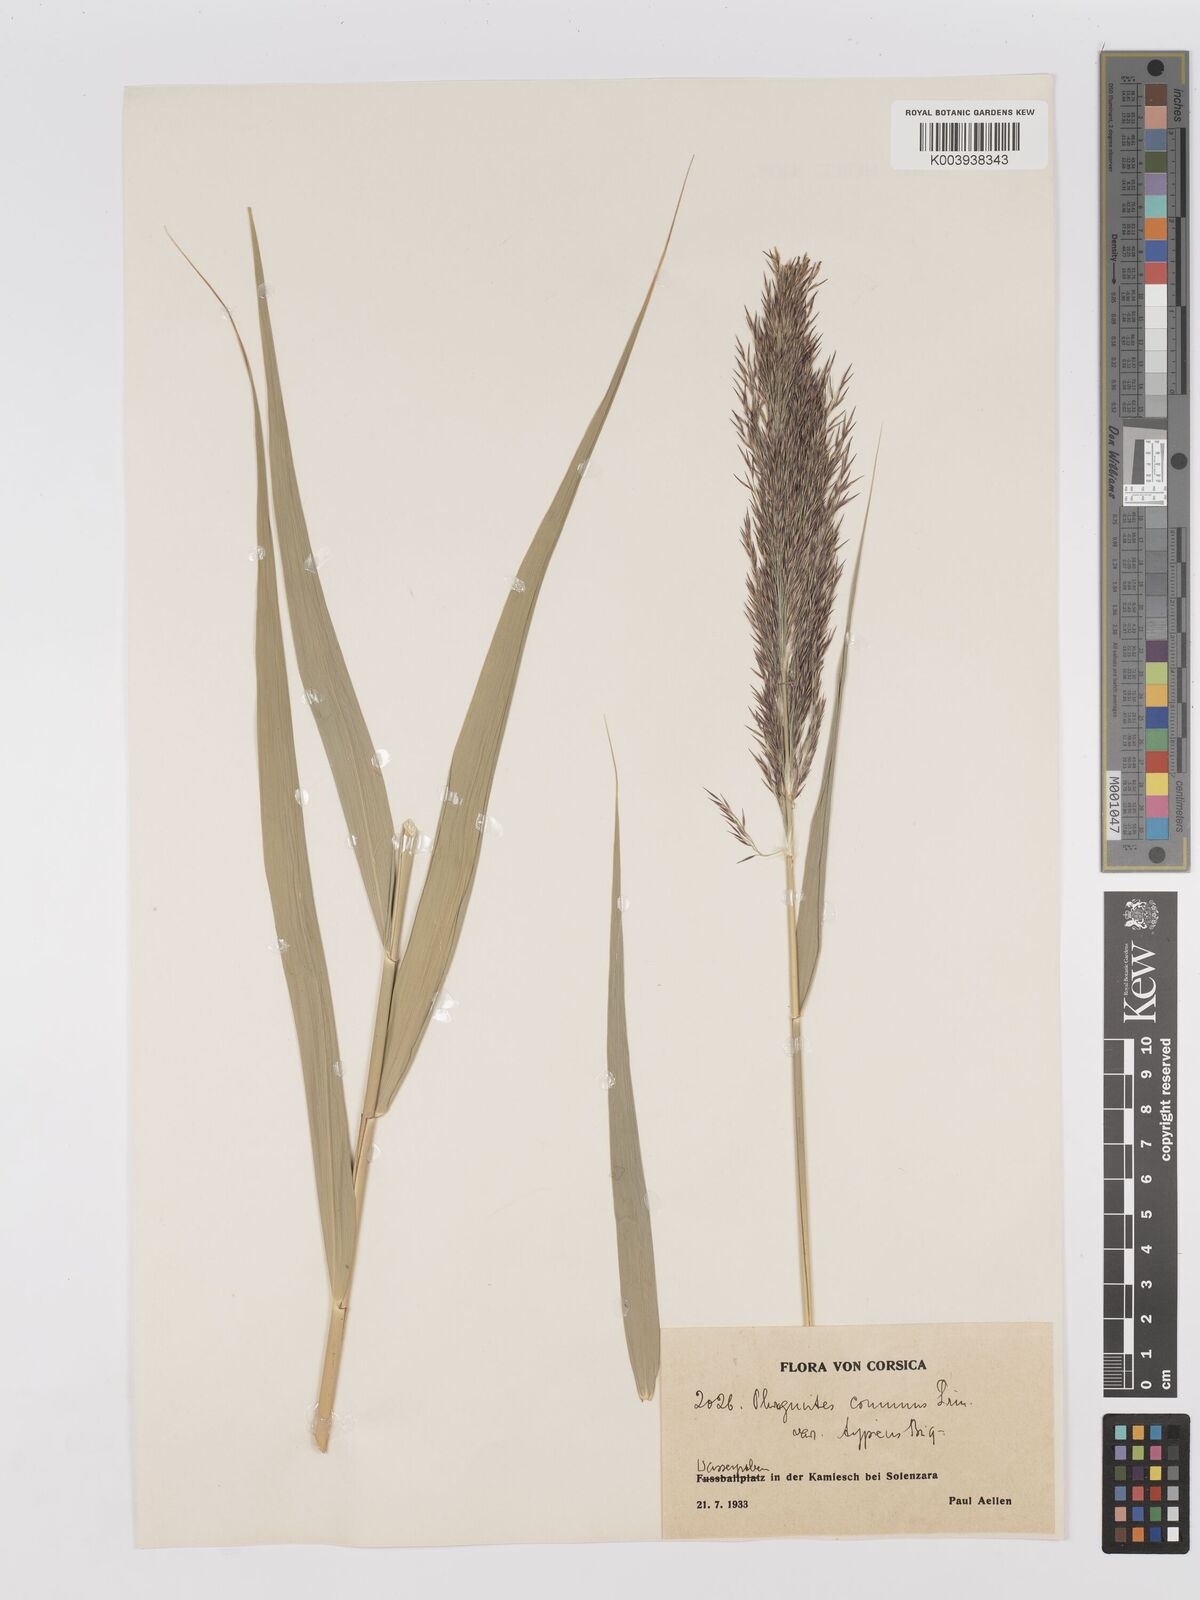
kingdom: Plantae
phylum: Tracheophyta
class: Liliopsida
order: Poales
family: Poaceae
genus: Phragmites
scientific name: Phragmites australis
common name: Common reed
